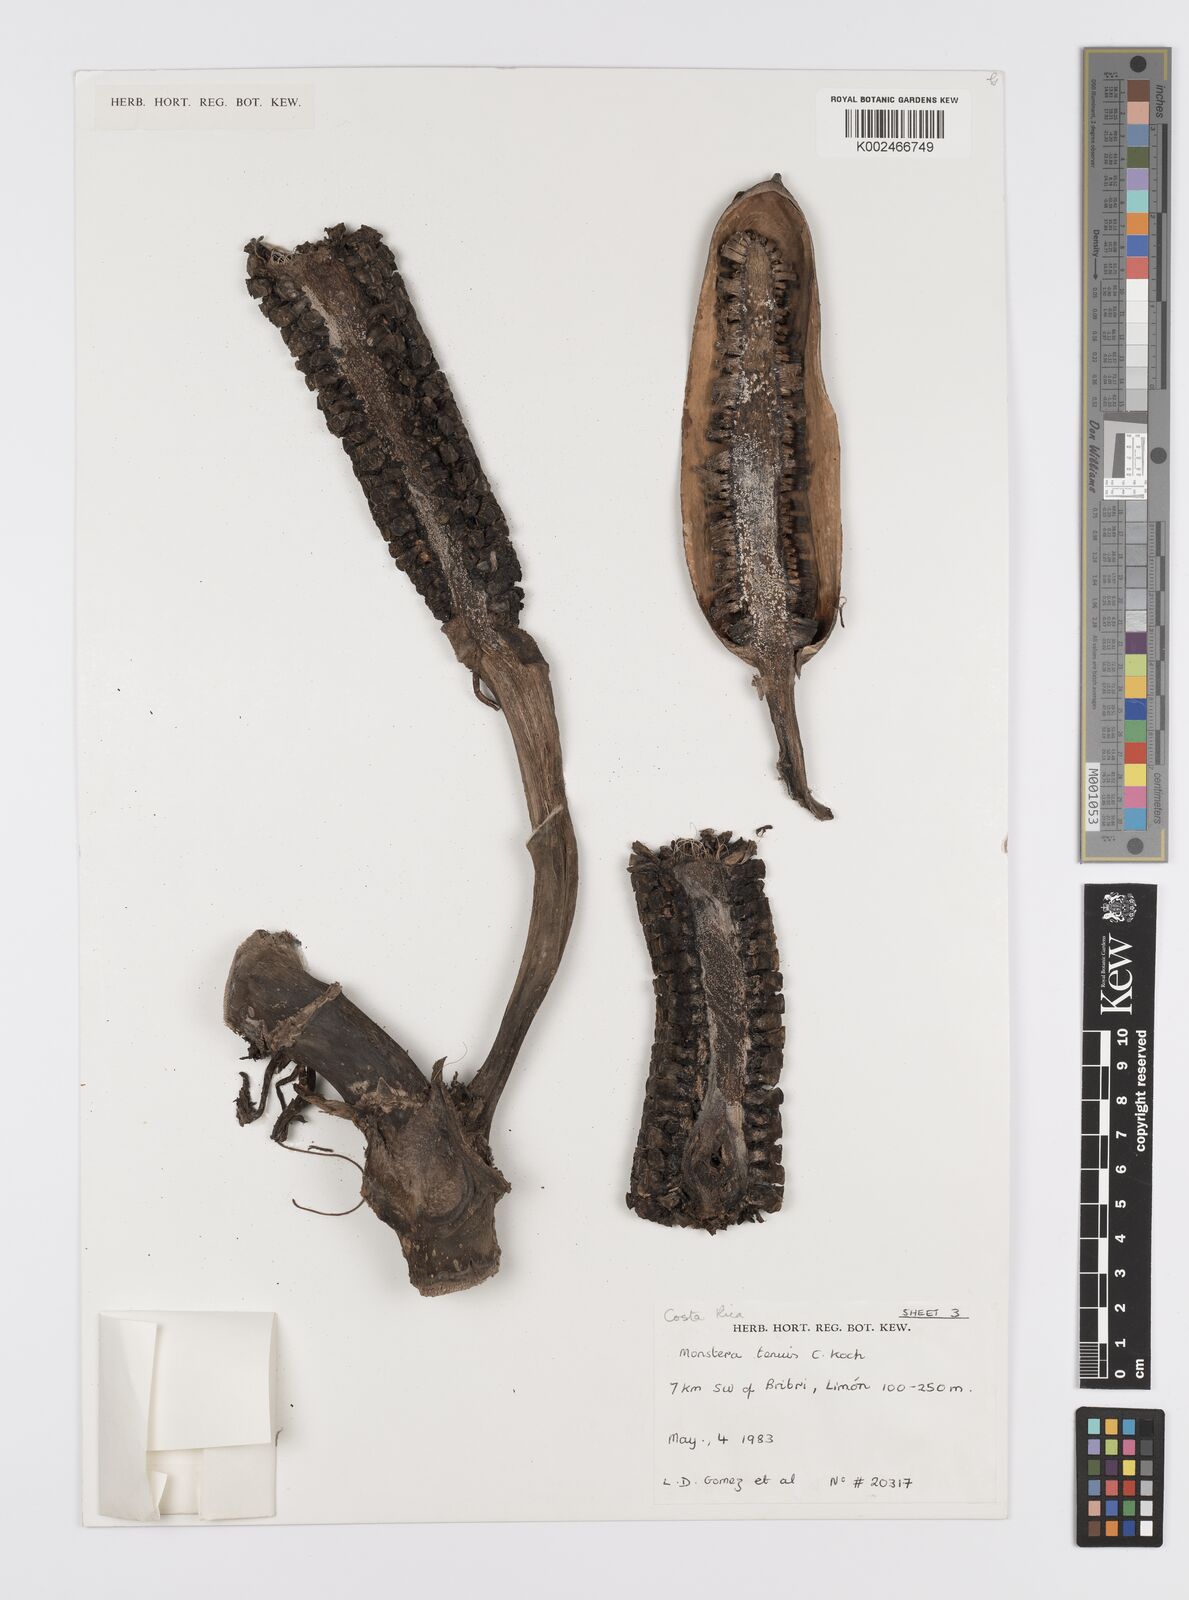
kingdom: Plantae
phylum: Tracheophyta
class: Liliopsida
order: Alismatales
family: Araceae
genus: Monstera
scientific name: Monstera tenuis
